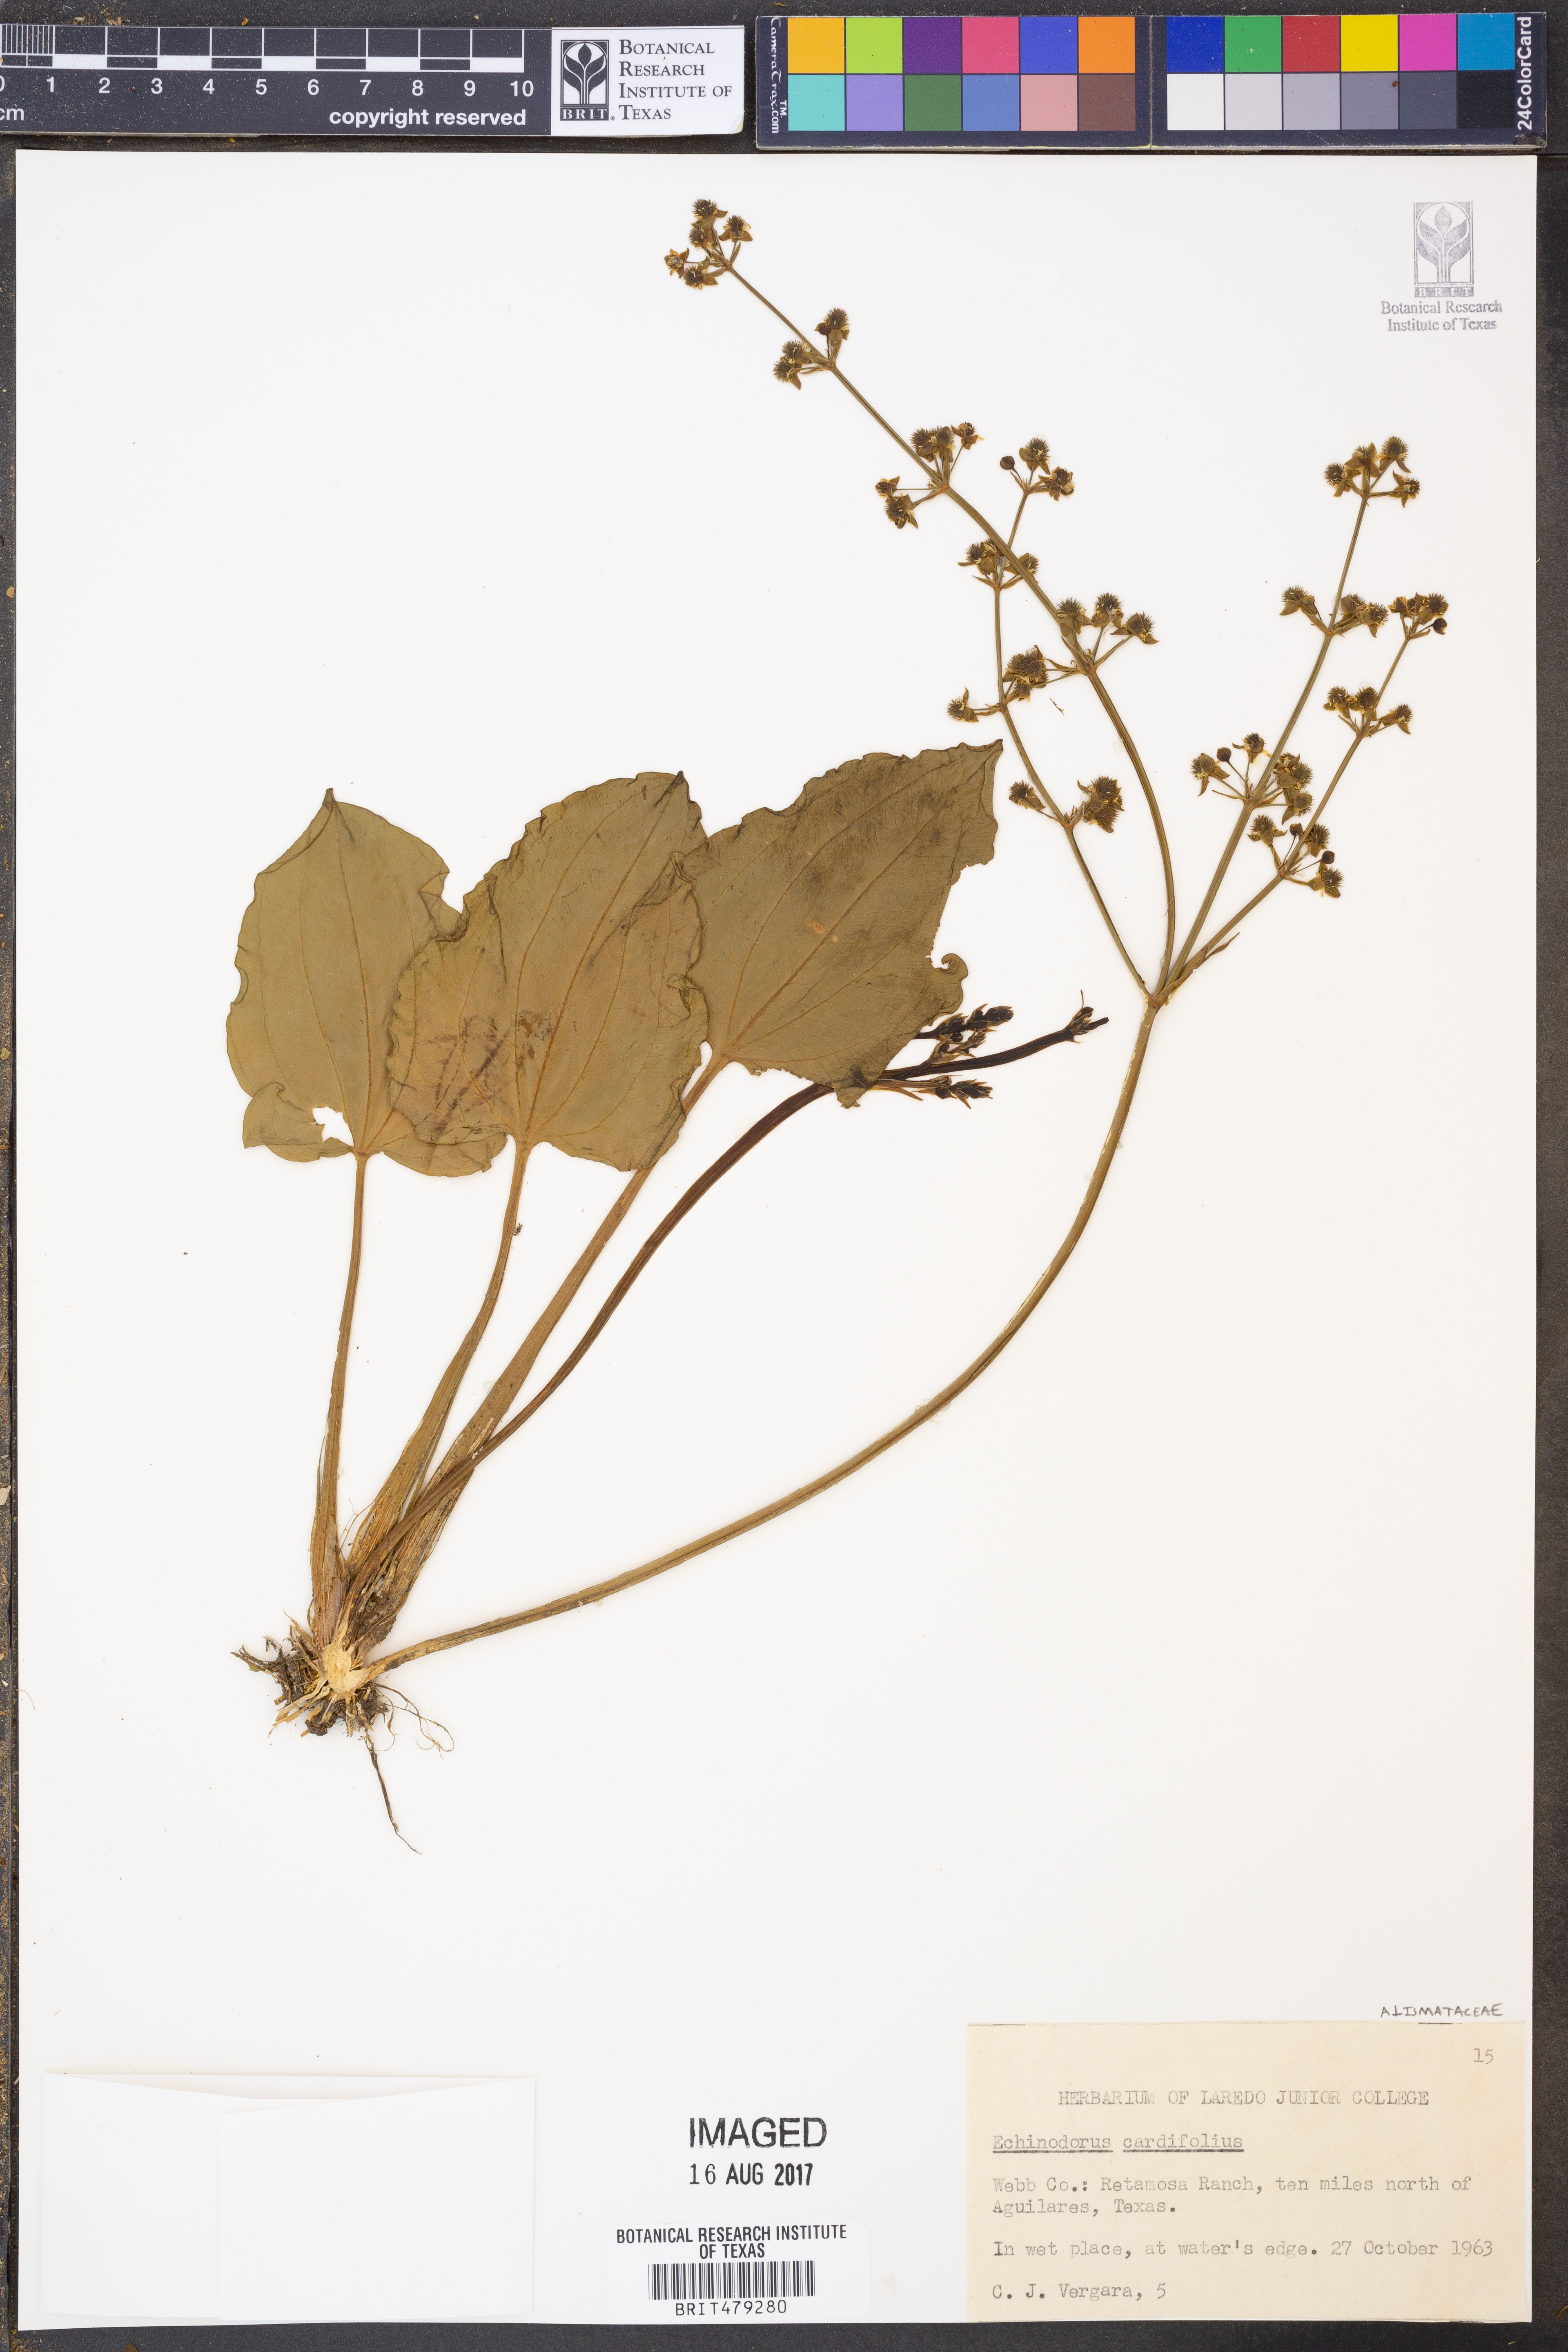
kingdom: Plantae
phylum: Tracheophyta
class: Liliopsida
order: Alismatales
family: Alismataceae
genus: Aquarius
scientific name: Aquarius cordifolius
